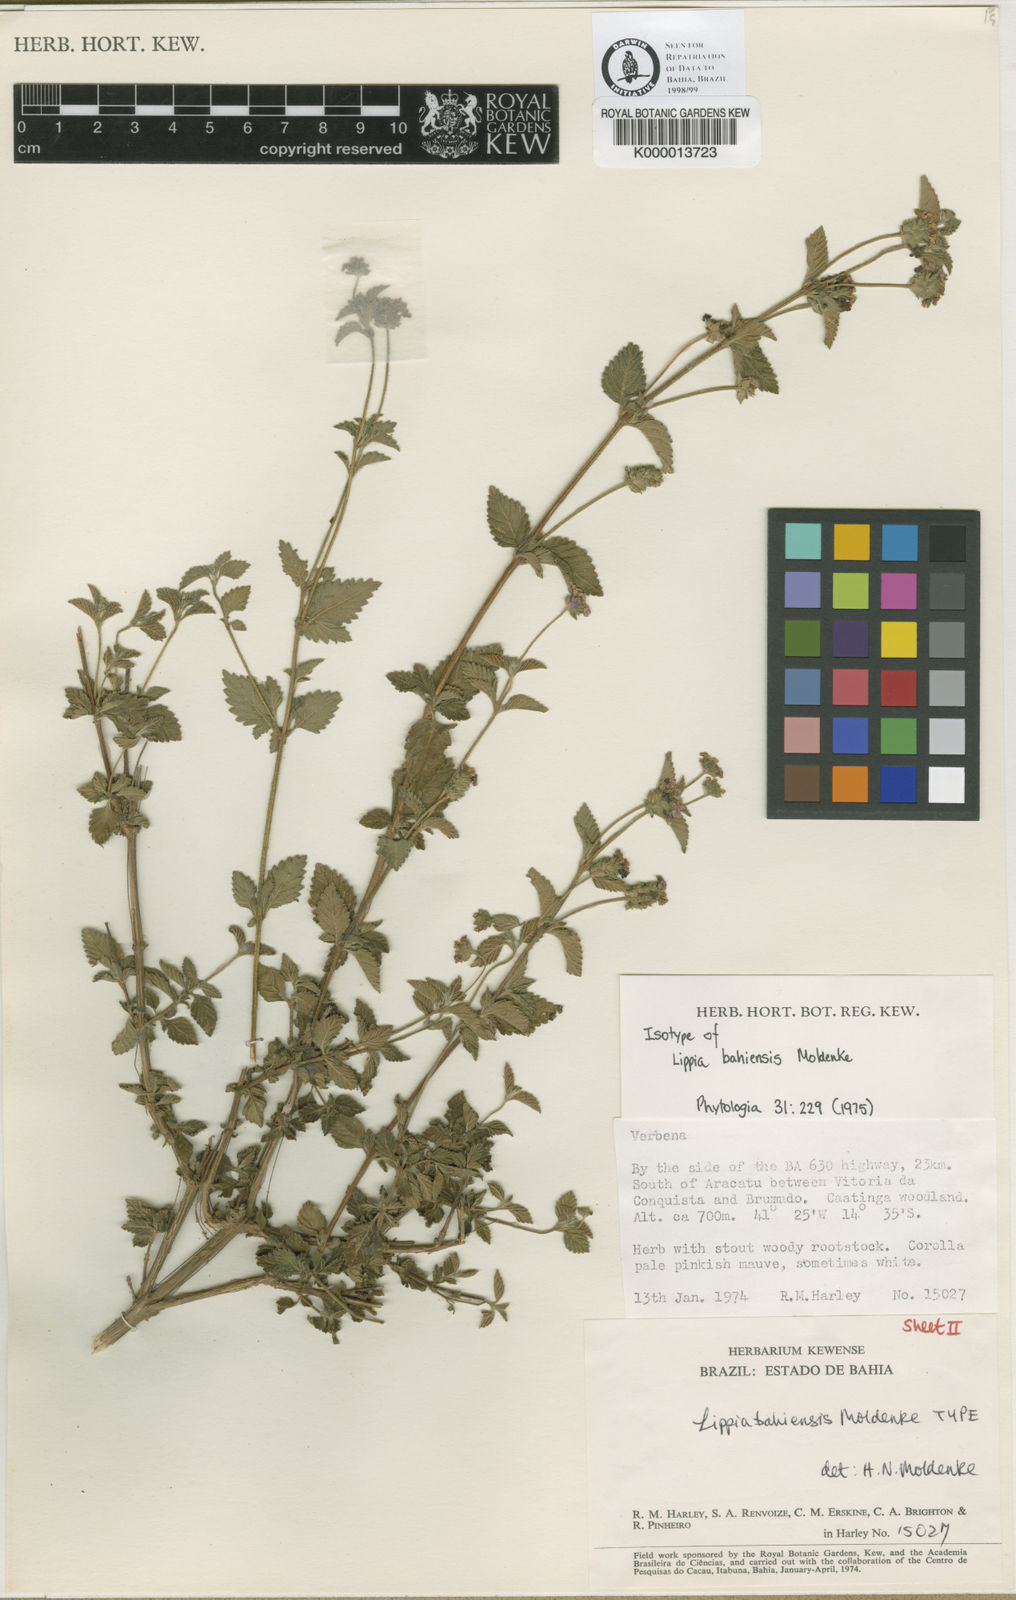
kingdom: Plantae
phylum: Tracheophyta
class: Magnoliopsida
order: Lamiales
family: Verbenaceae
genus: Lantana
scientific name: Lantana gracilis
